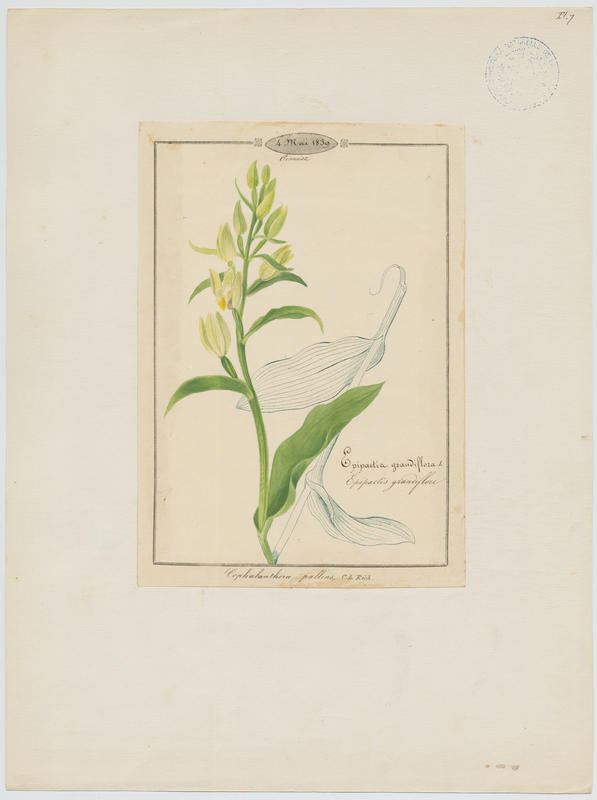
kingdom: Plantae
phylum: Tracheophyta
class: Liliopsida
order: Asparagales
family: Orchidaceae
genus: Cephalanthera
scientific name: Cephalanthera damasonium
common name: White helleborine
